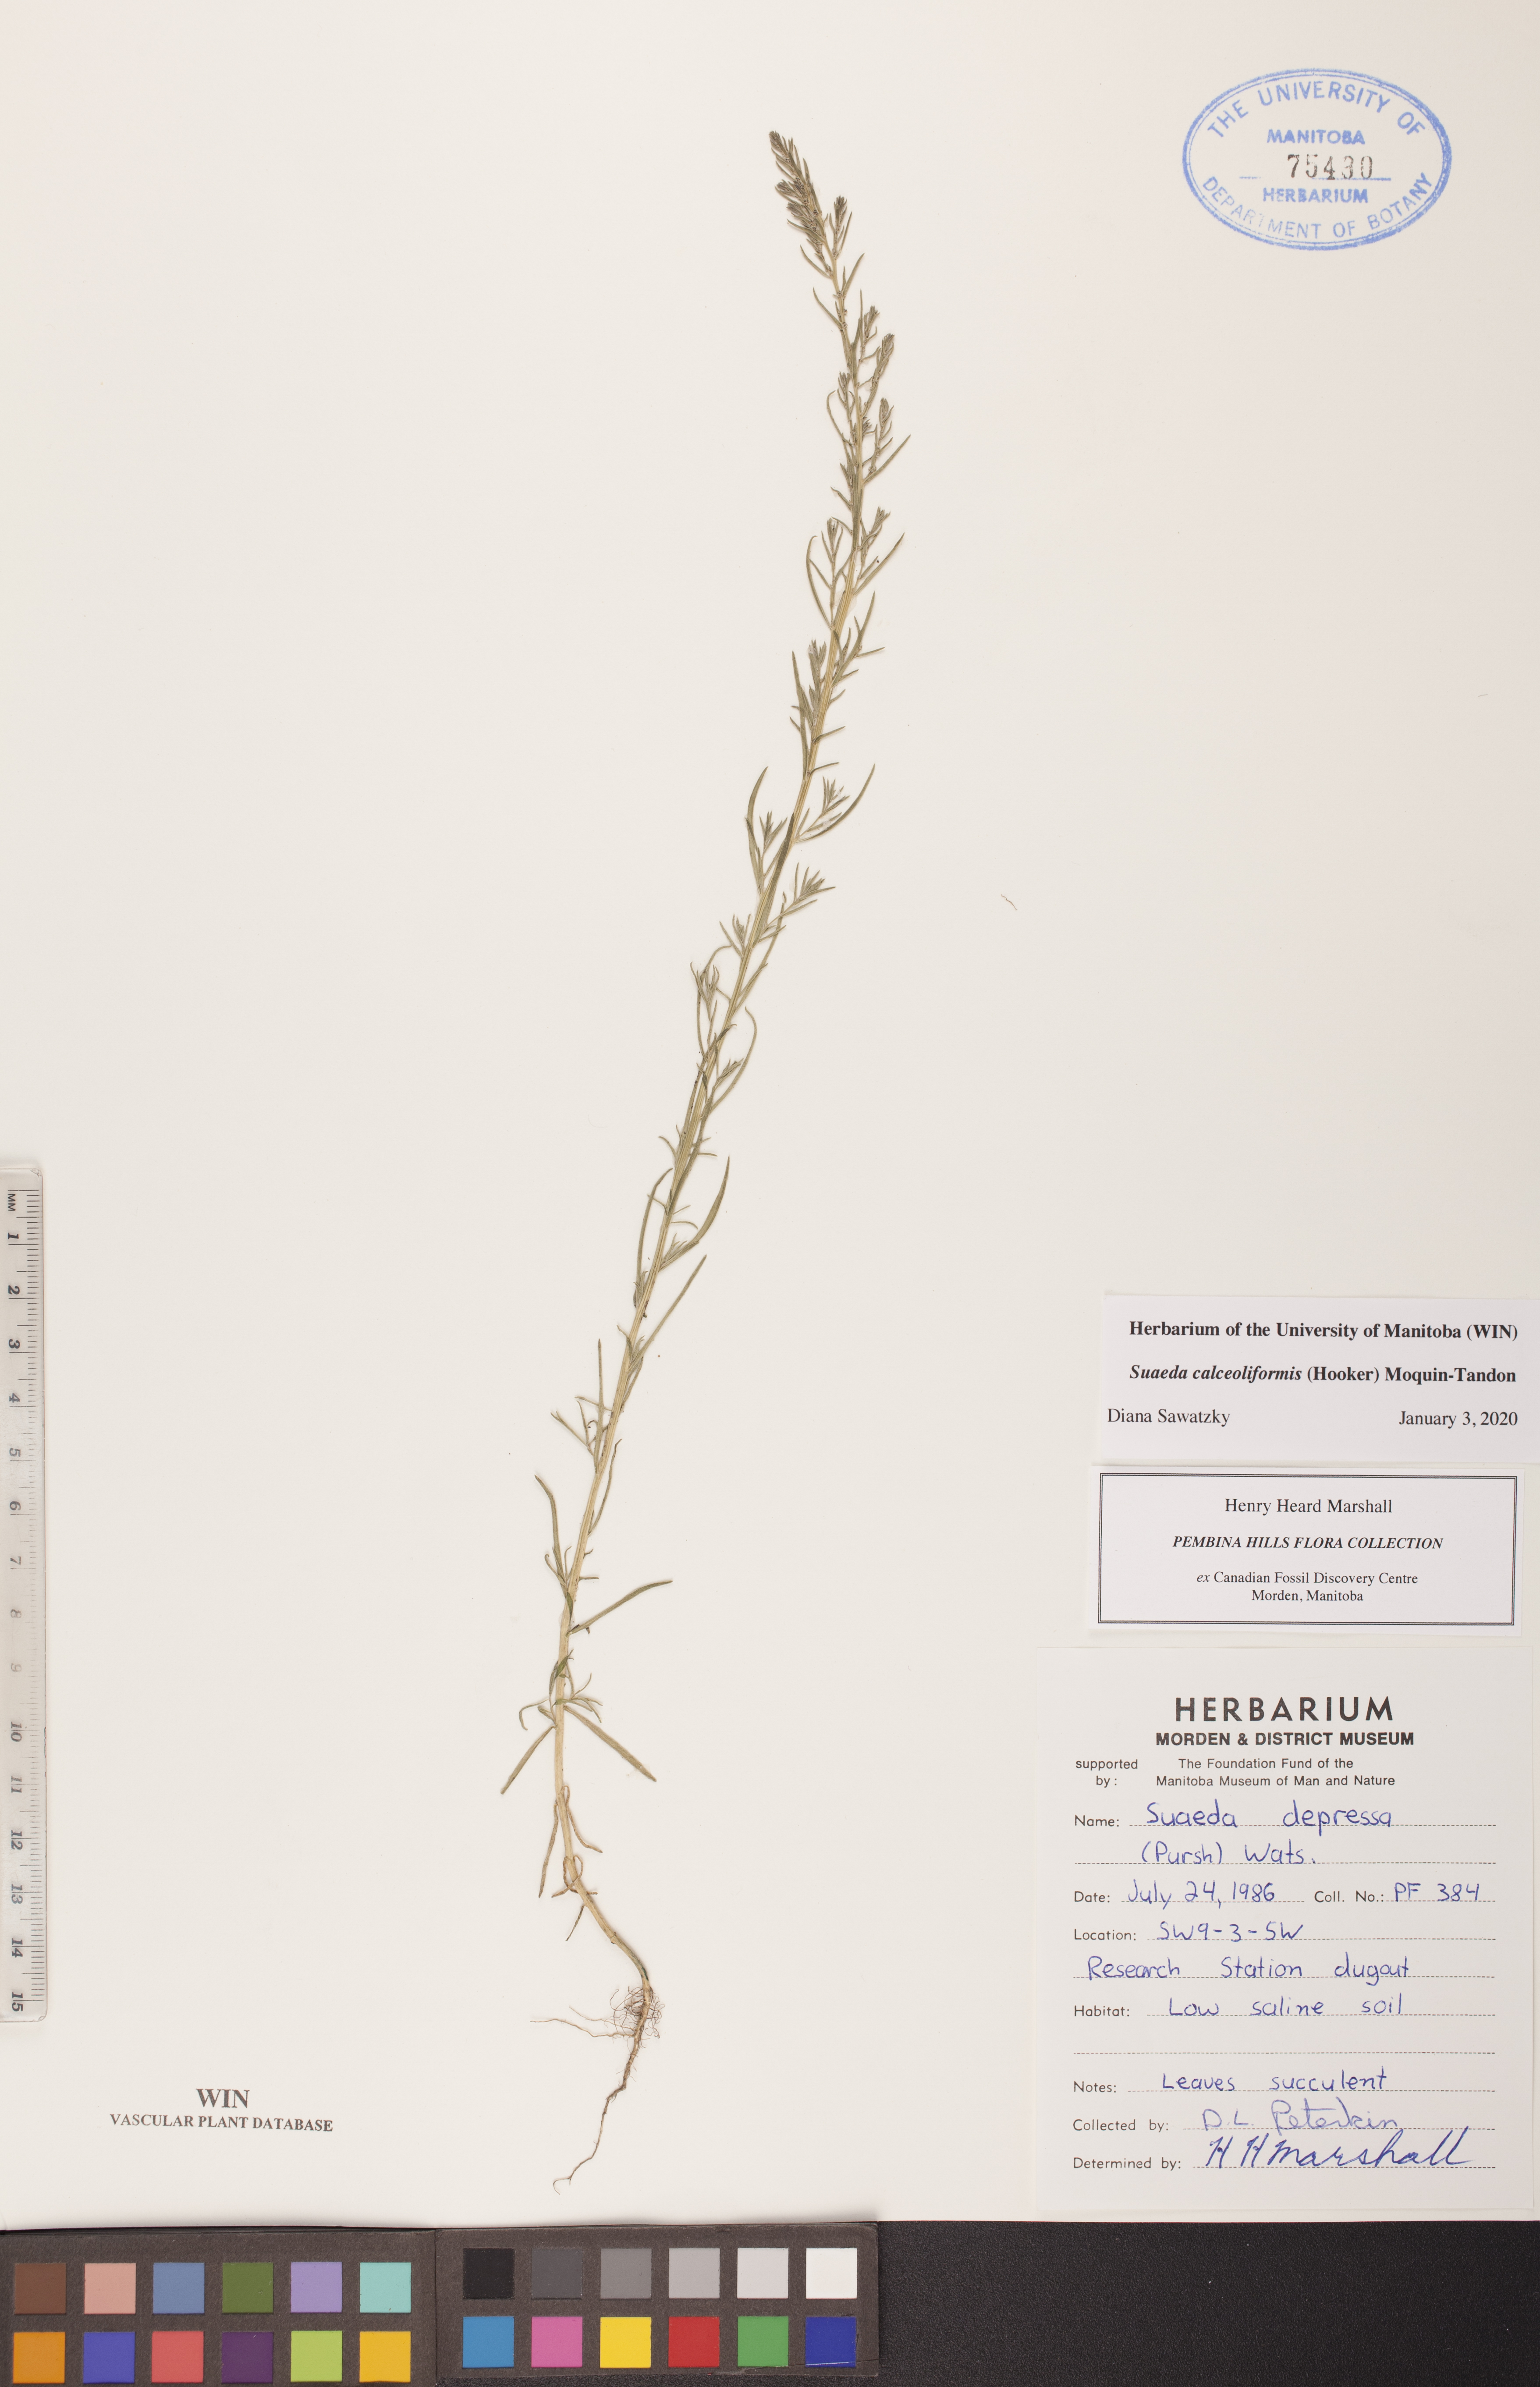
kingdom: Plantae
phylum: Tracheophyta
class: Magnoliopsida
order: Caryophyllales
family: Amaranthaceae
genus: Suaeda
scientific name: Suaeda calceoliformis
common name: Pursh's seepweed
